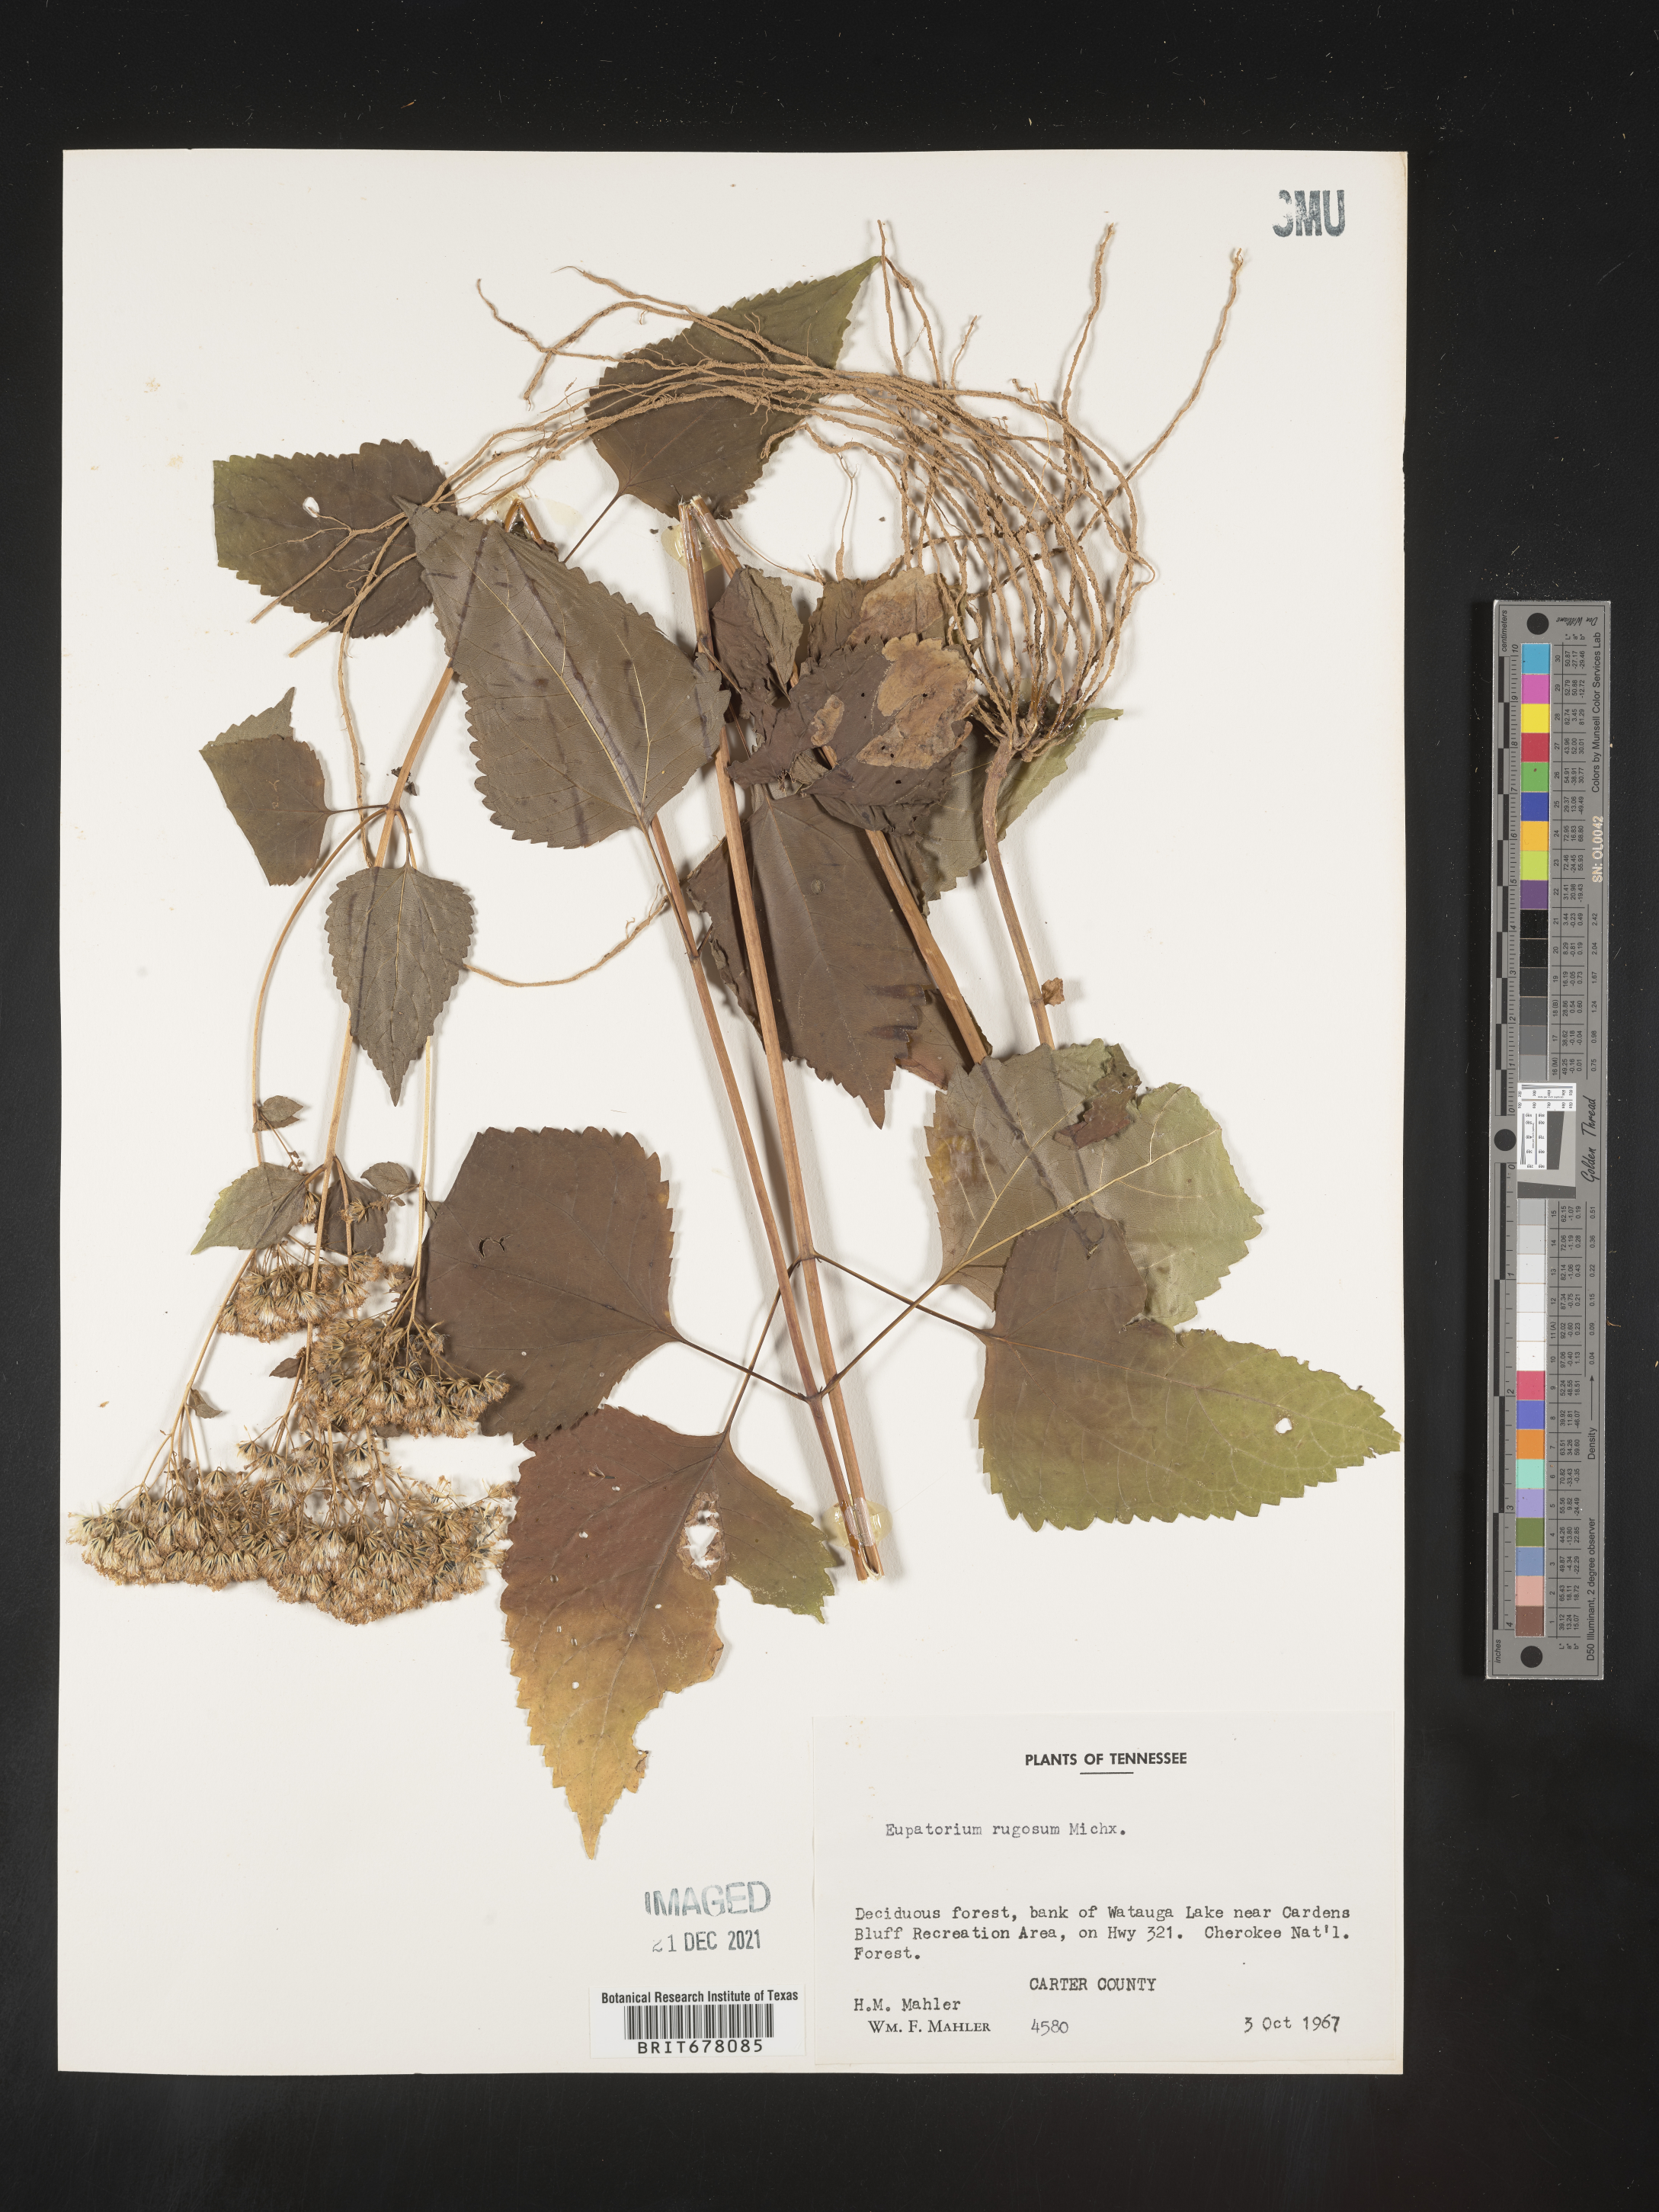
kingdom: Plantae
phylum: Tracheophyta
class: Magnoliopsida
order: Asterales
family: Asteraceae
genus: Eupatorium
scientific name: Eupatorium
